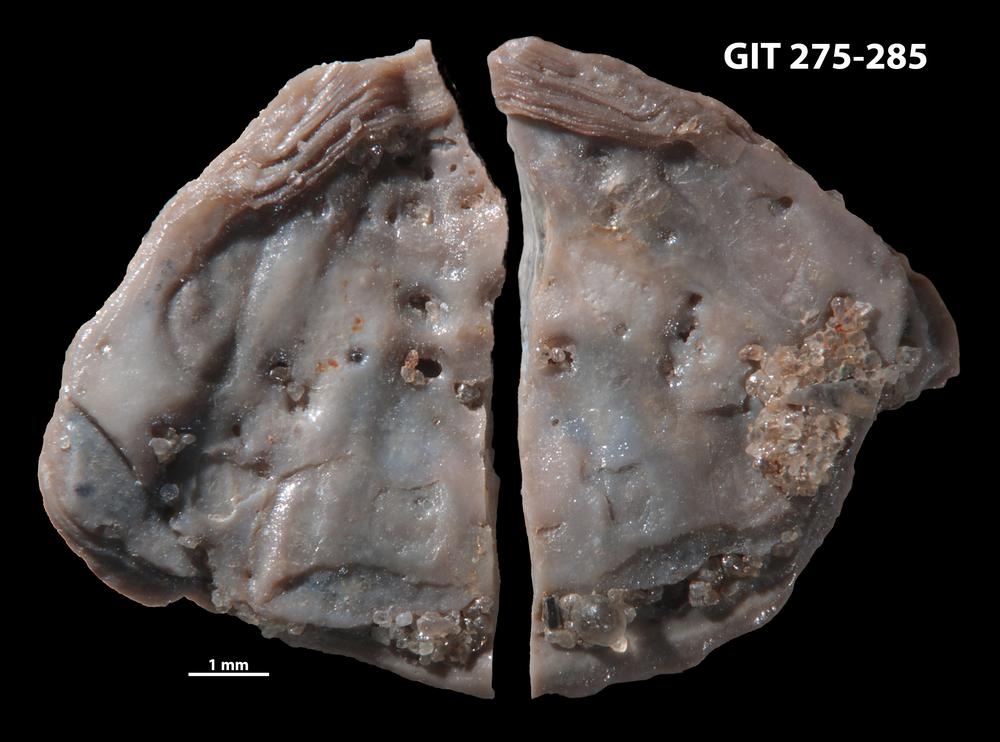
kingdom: Animalia
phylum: Brachiopoda
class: Lingulata
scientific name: Lingulata
